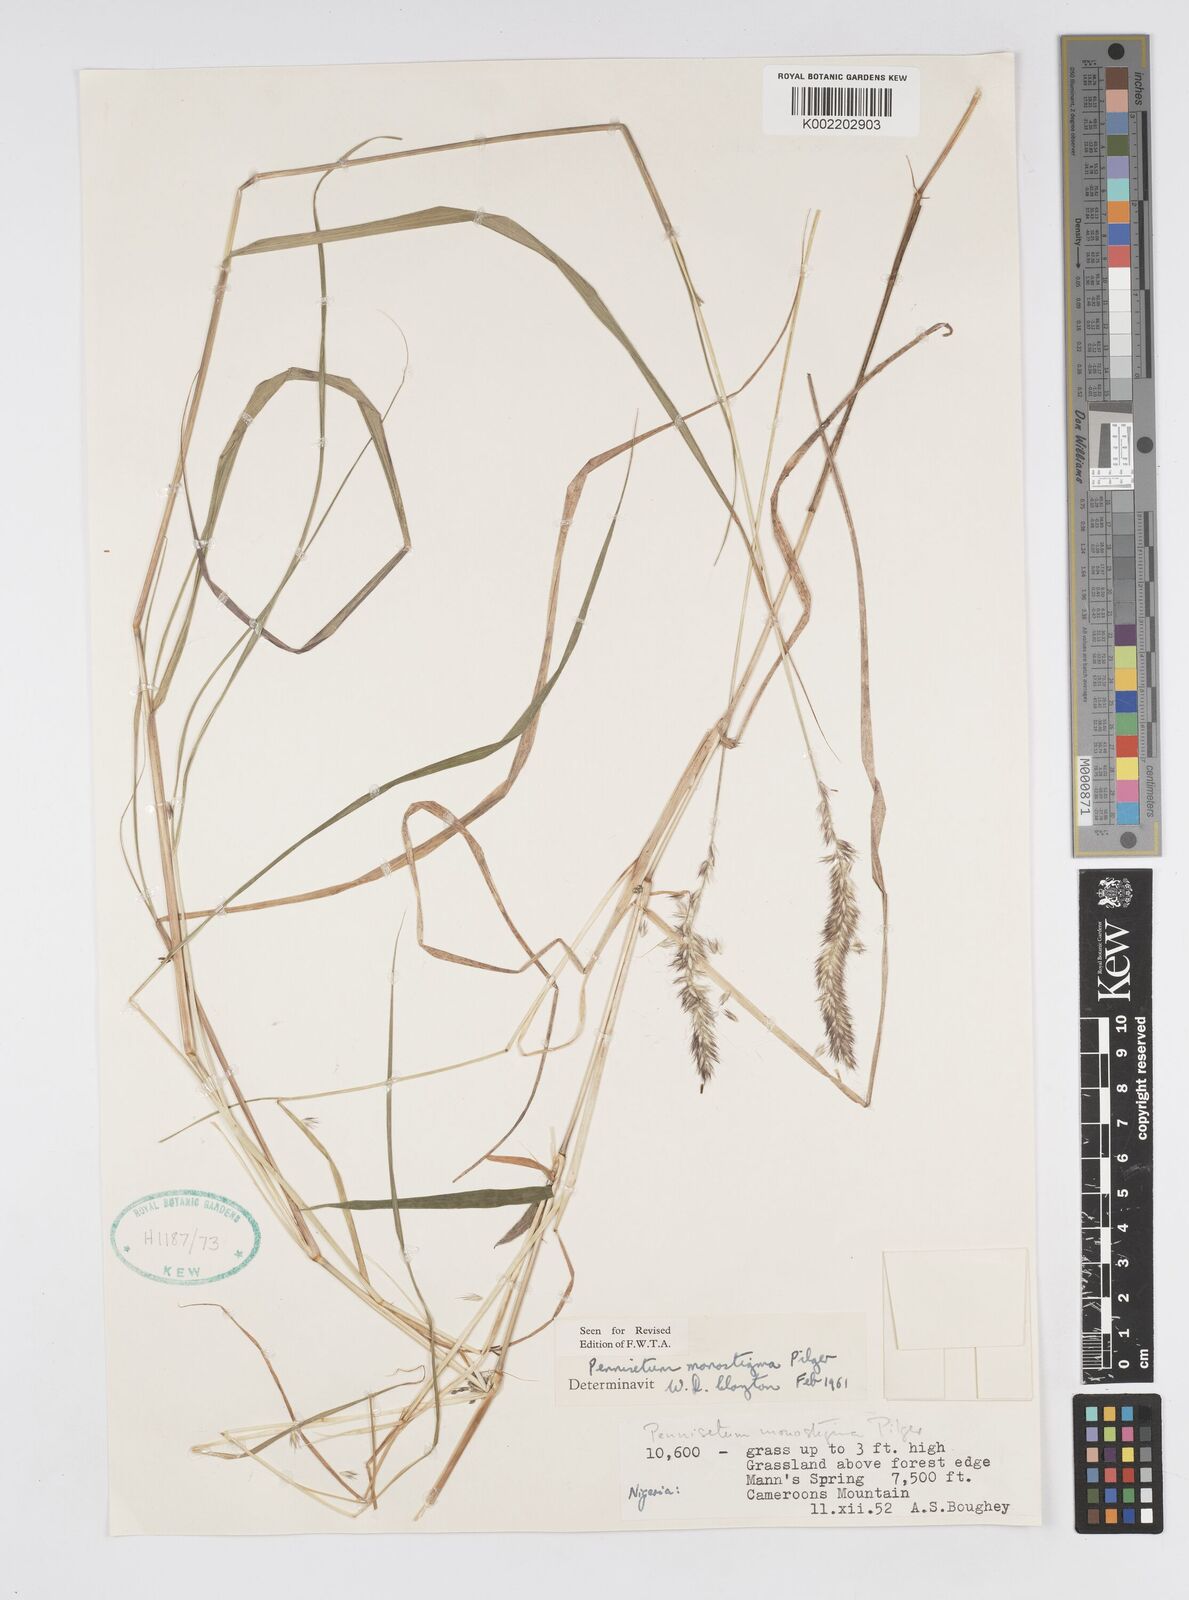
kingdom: Plantae
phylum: Tracheophyta
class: Liliopsida
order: Poales
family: Poaceae
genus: Cenchrus
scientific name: Cenchrus monostigma
